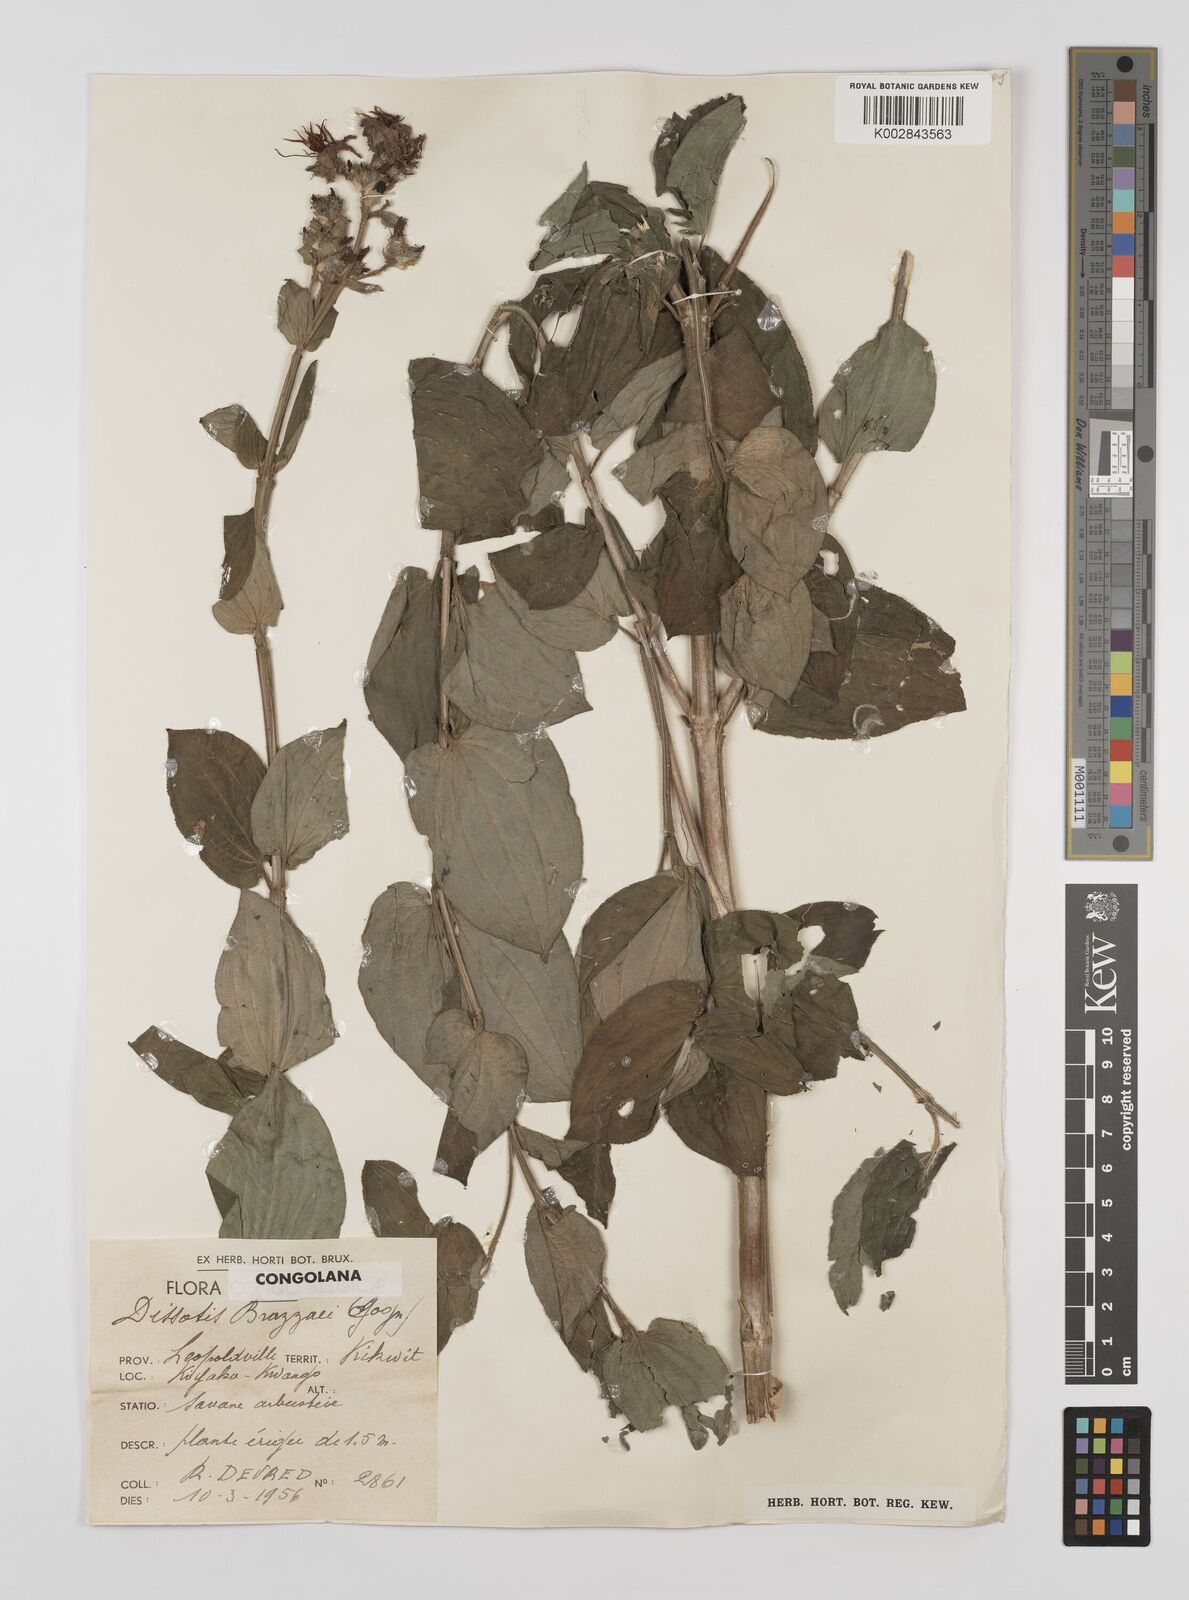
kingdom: Plantae
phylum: Tracheophyta
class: Magnoliopsida
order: Myrtales
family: Melastomataceae
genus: Dupineta
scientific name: Dupineta brazzae
